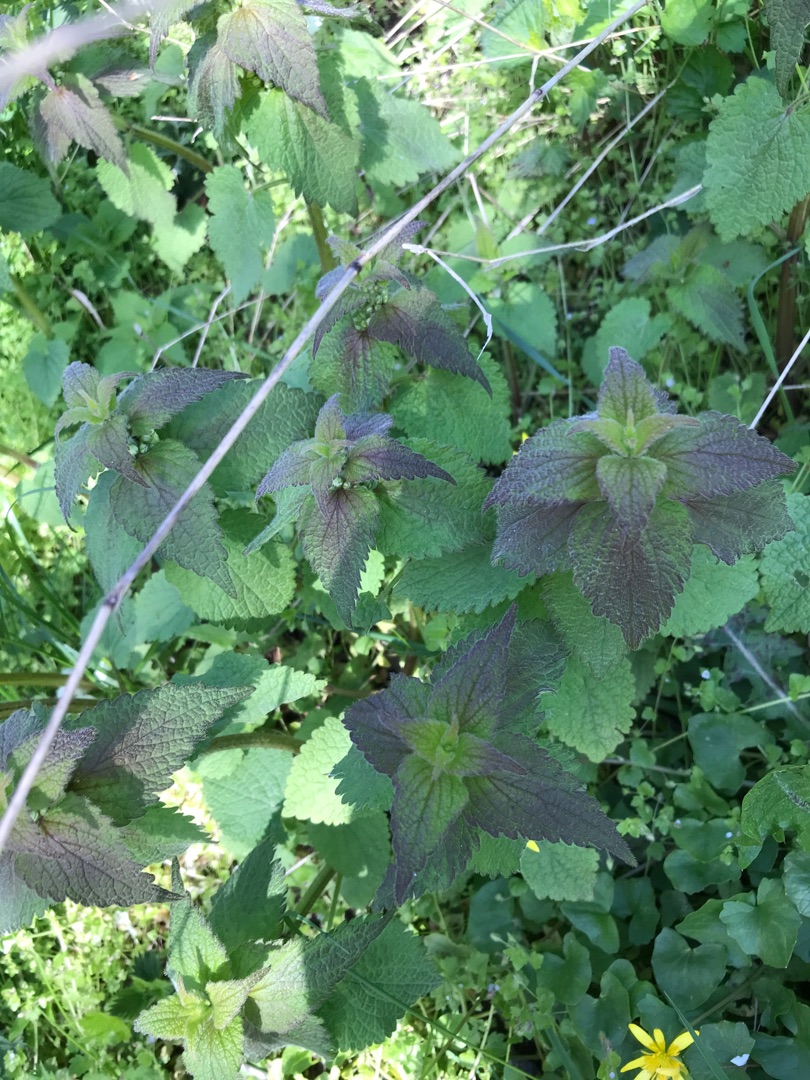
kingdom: Plantae
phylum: Tracheophyta
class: Magnoliopsida
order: Lamiales
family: Lamiaceae
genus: Lamium
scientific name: Lamium album
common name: Døvnælde
